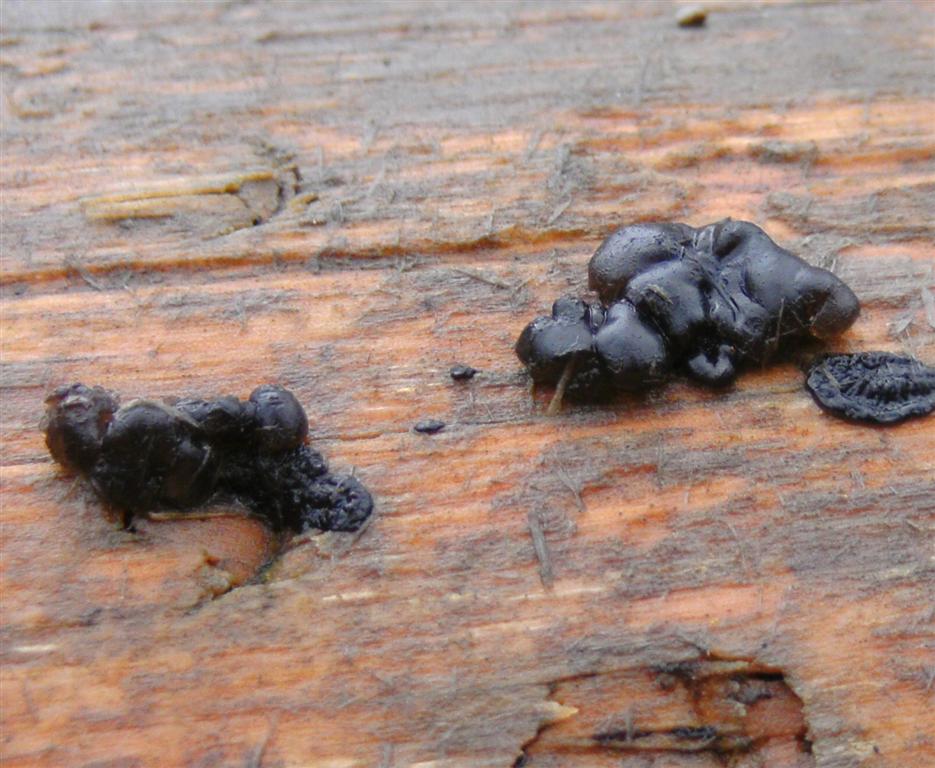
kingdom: Fungi
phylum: Basidiomycota
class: Agaricomycetes
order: Auriculariales
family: Auriculariaceae
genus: Exidia
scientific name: Exidia nigricans
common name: almindelig bævretop
